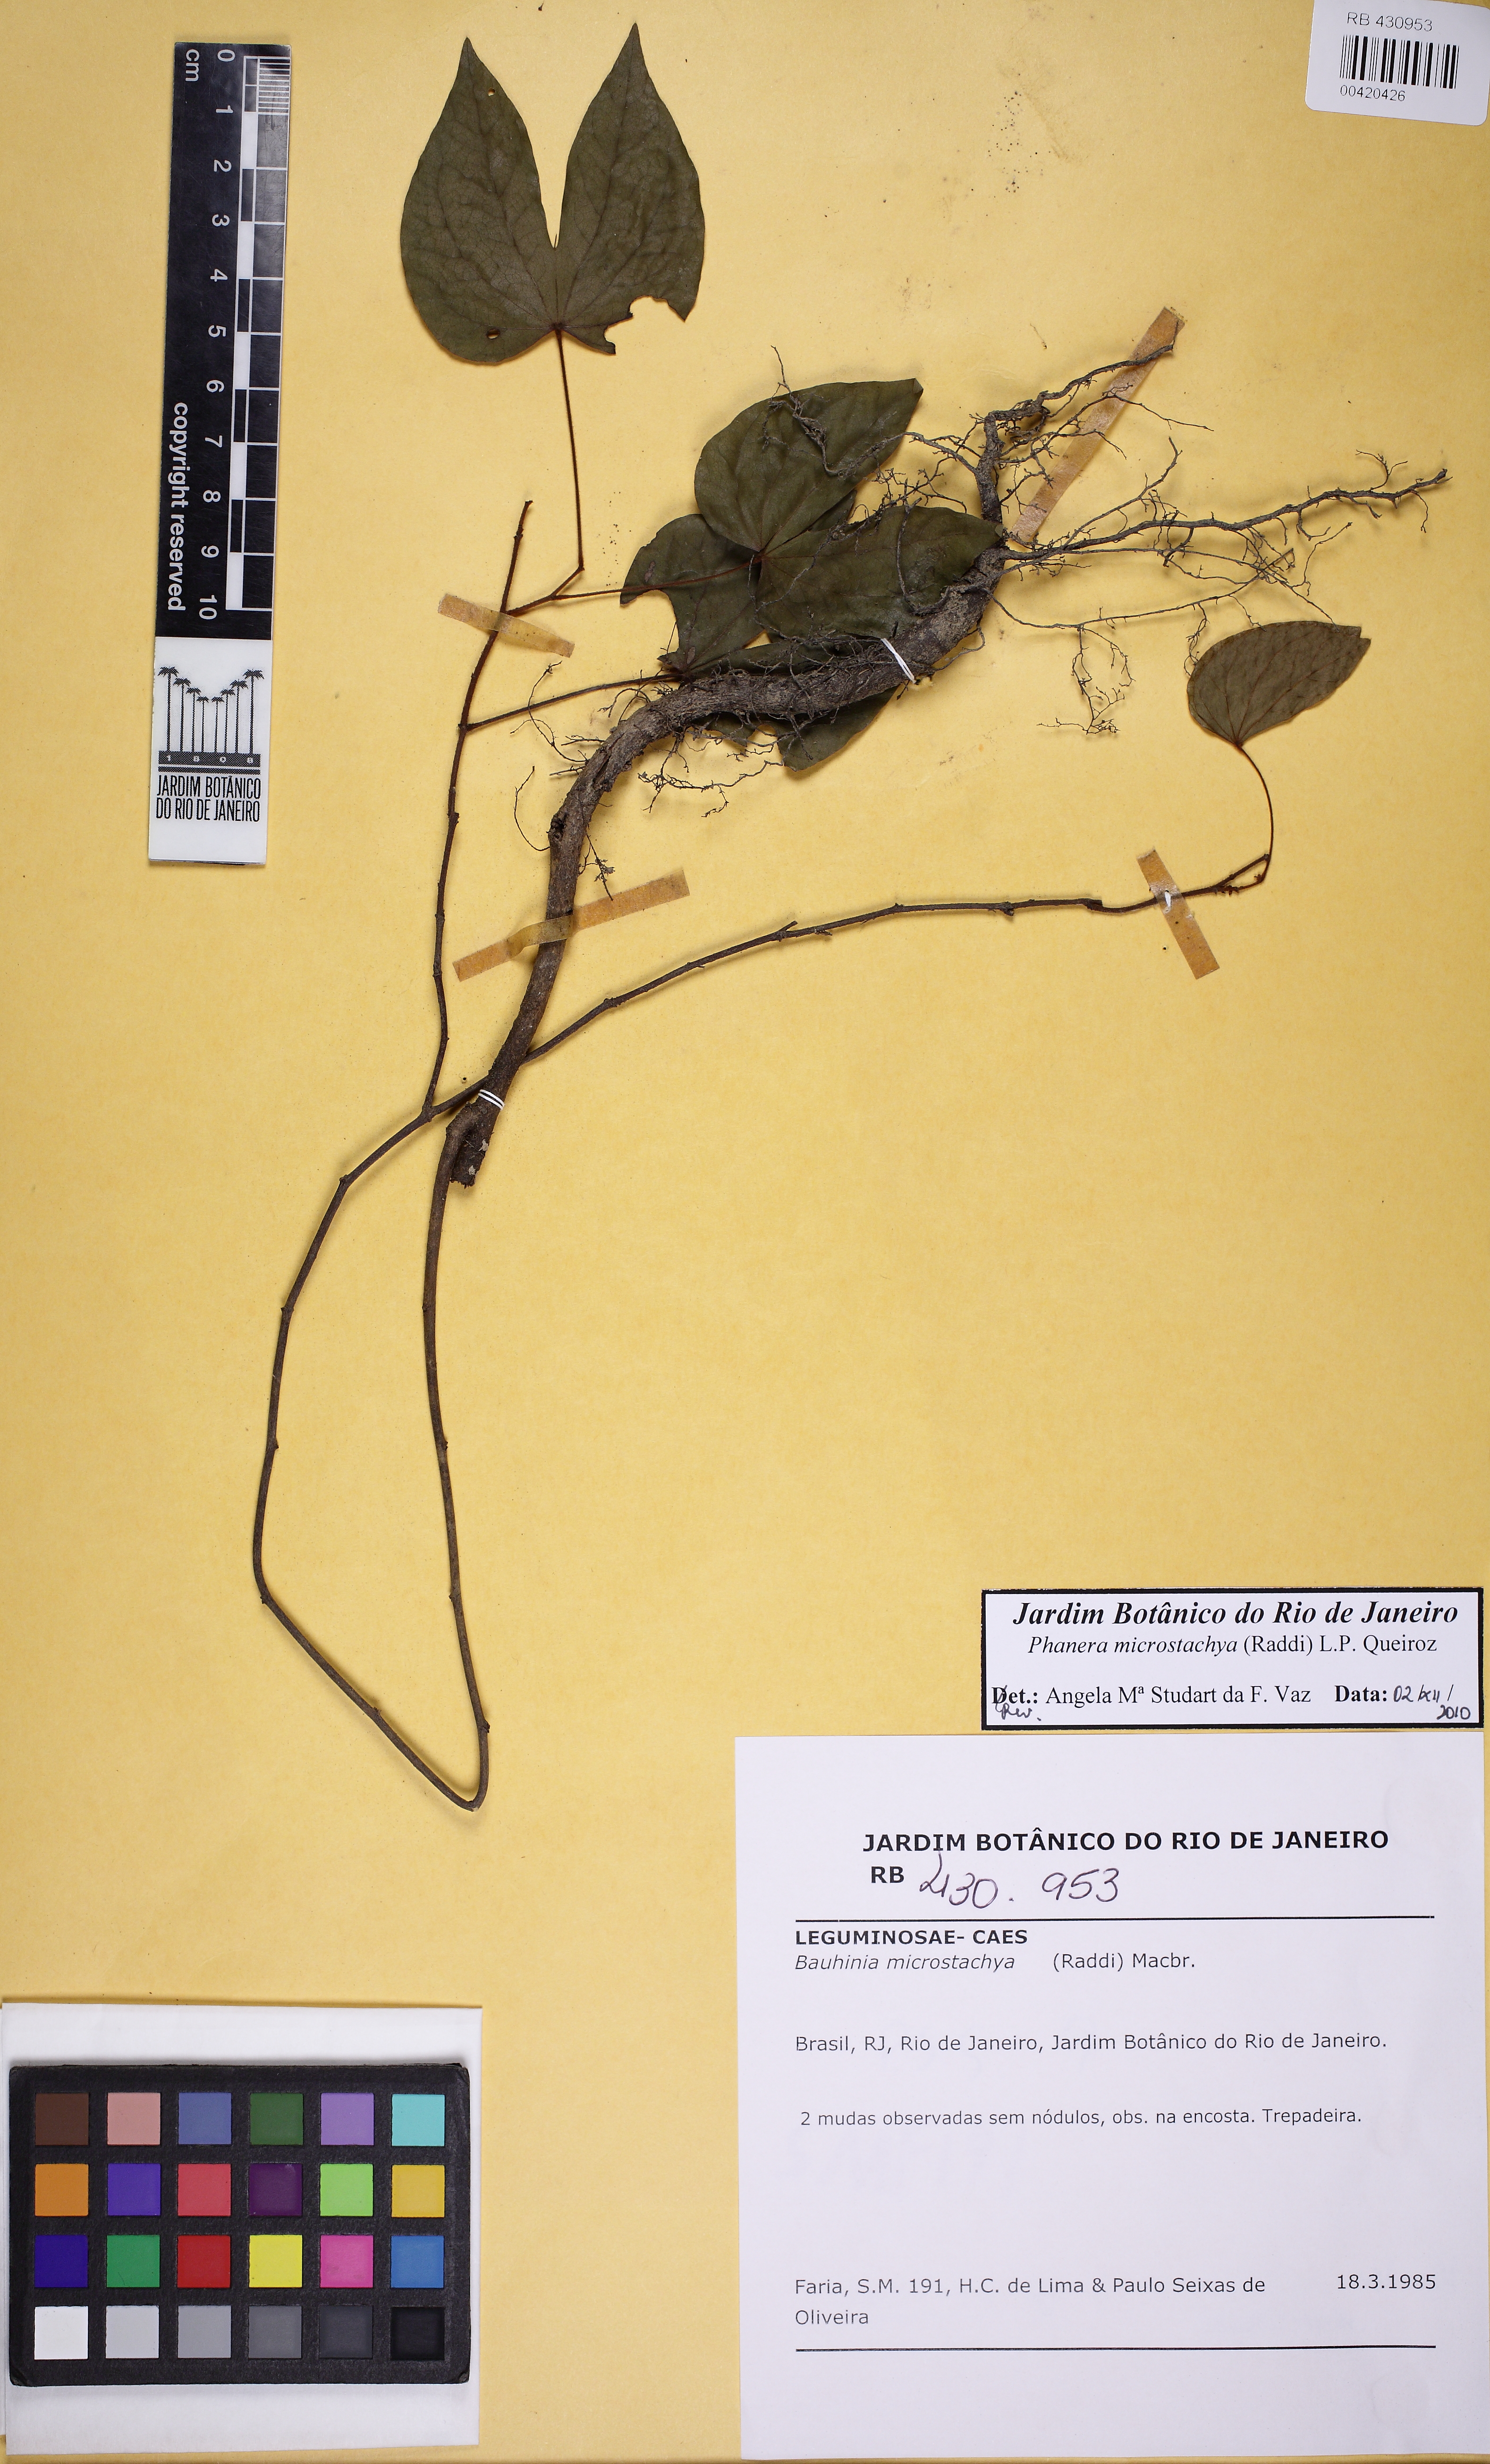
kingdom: Plantae
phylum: Tracheophyta
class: Magnoliopsida
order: Fabales
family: Fabaceae
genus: Schnella
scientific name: Schnella microstachya
